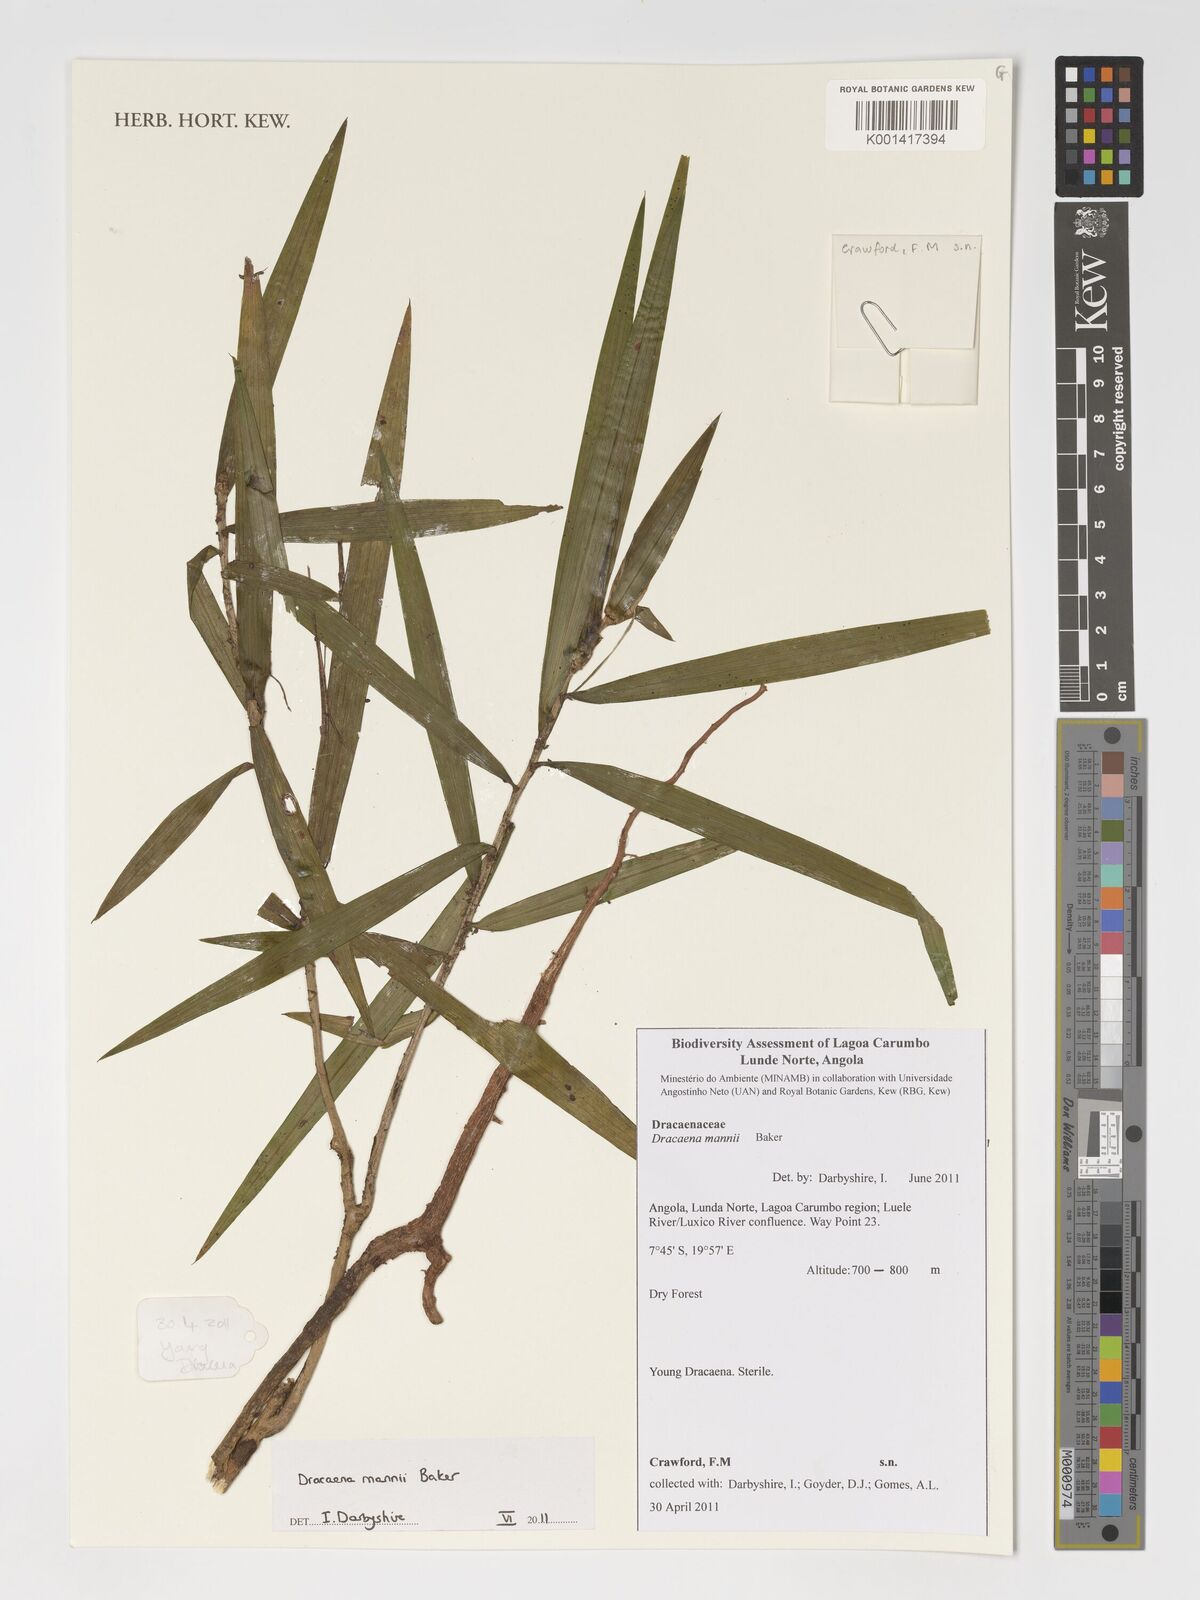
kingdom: Plantae
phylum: Tracheophyta
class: Liliopsida
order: Asparagales
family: Asparagaceae
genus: Dracaena
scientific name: Dracaena mannii
